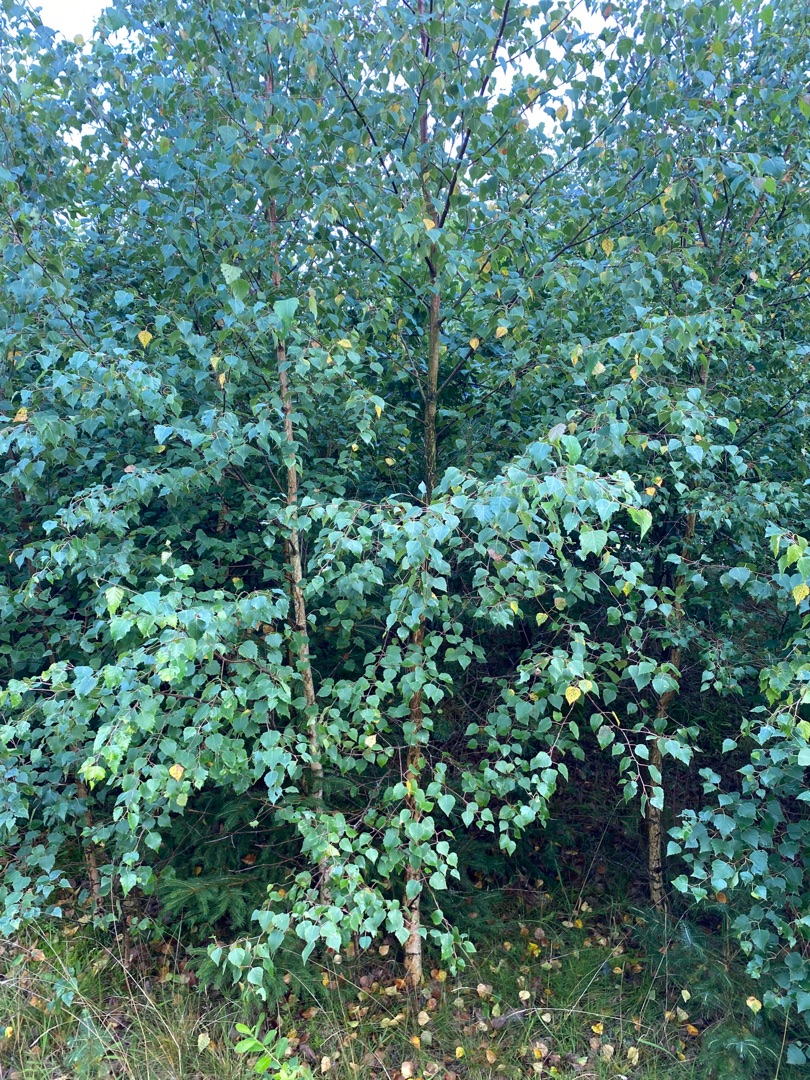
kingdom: Plantae
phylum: Tracheophyta
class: Magnoliopsida
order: Fagales
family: Betulaceae
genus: Betula
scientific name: Betula pendula
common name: Vorte-birk
